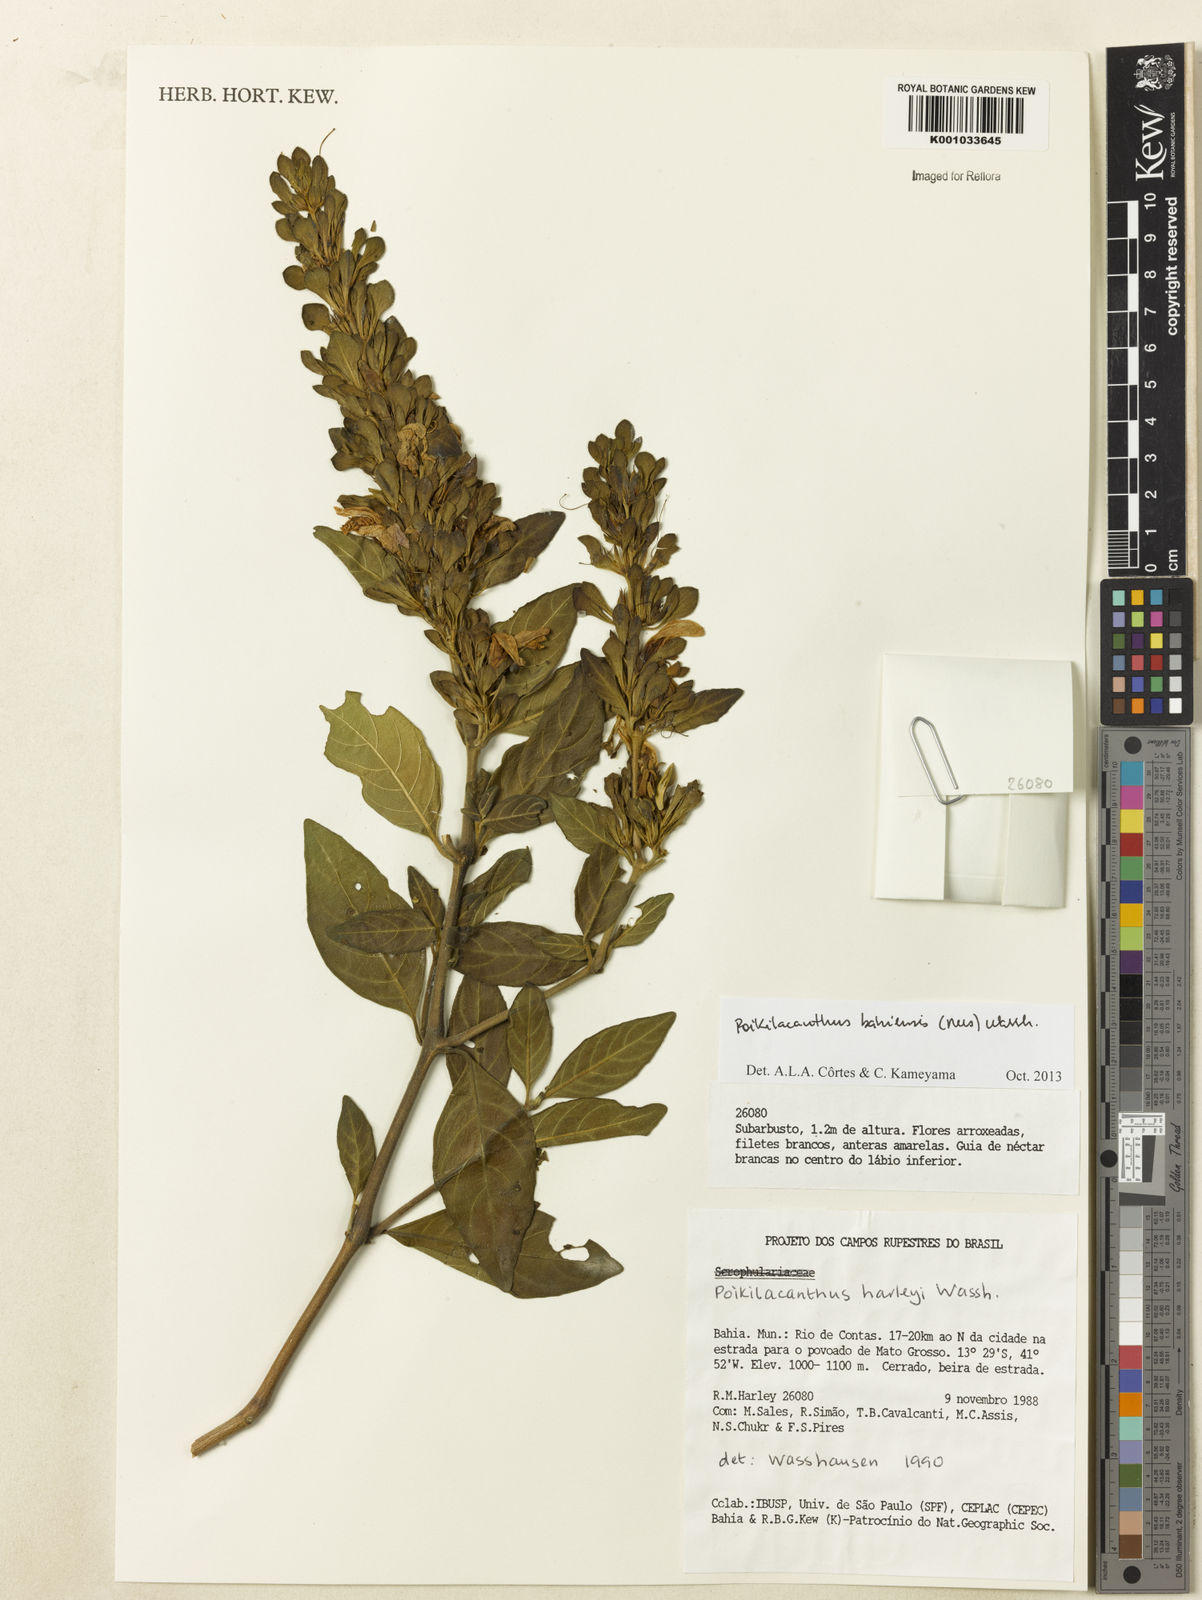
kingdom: Plantae
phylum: Tracheophyta
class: Magnoliopsida
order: Lamiales
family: Acanthaceae
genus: Poikilacanthus
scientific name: Poikilacanthus bahiensis
